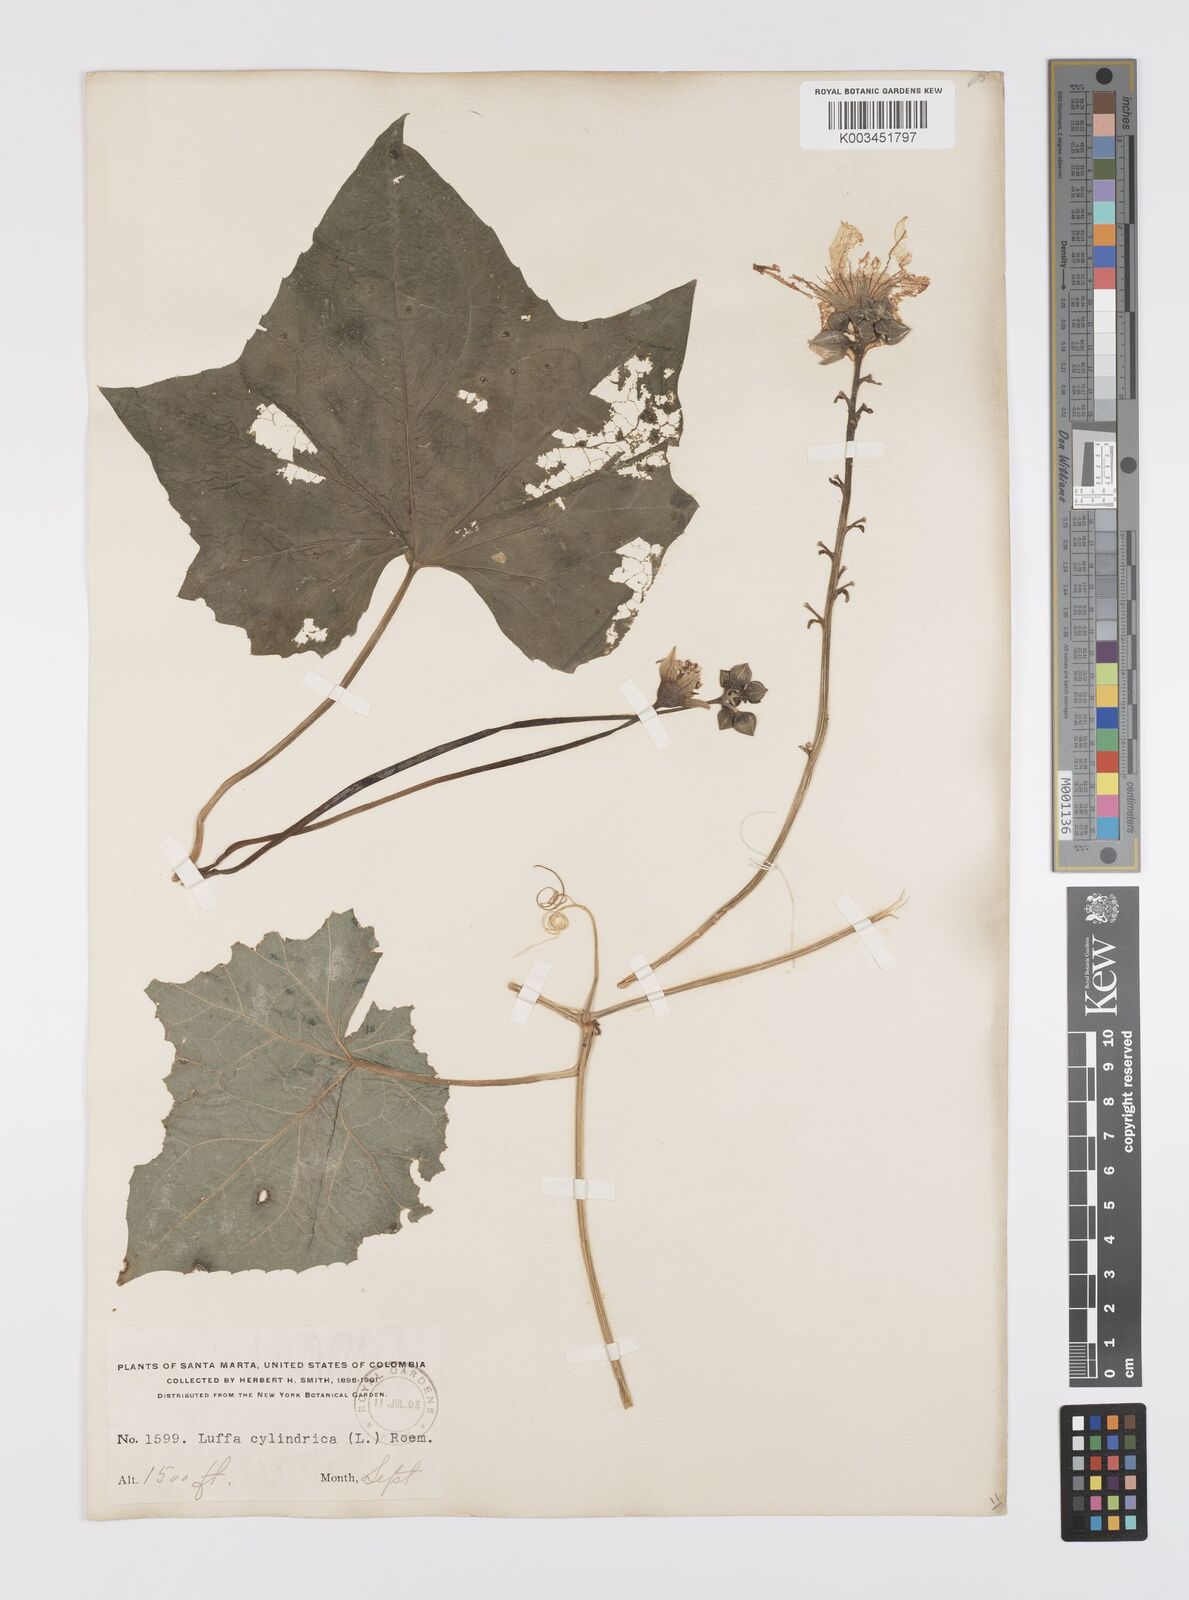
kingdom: Plantae
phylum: Tracheophyta
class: Magnoliopsida
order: Cucurbitales
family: Cucurbitaceae
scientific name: Cucurbitaceae
